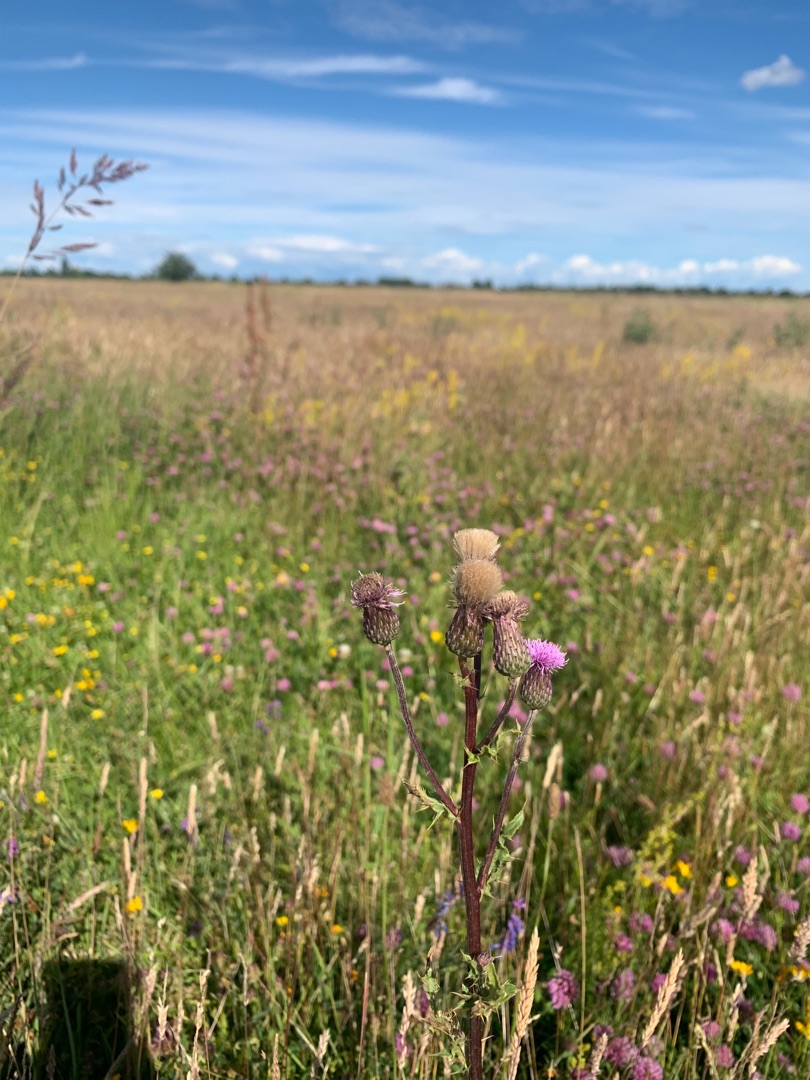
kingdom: Plantae
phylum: Tracheophyta
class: Magnoliopsida
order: Asterales
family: Asteraceae
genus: Cirsium
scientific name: Cirsium arvense
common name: Ager-tidsel
